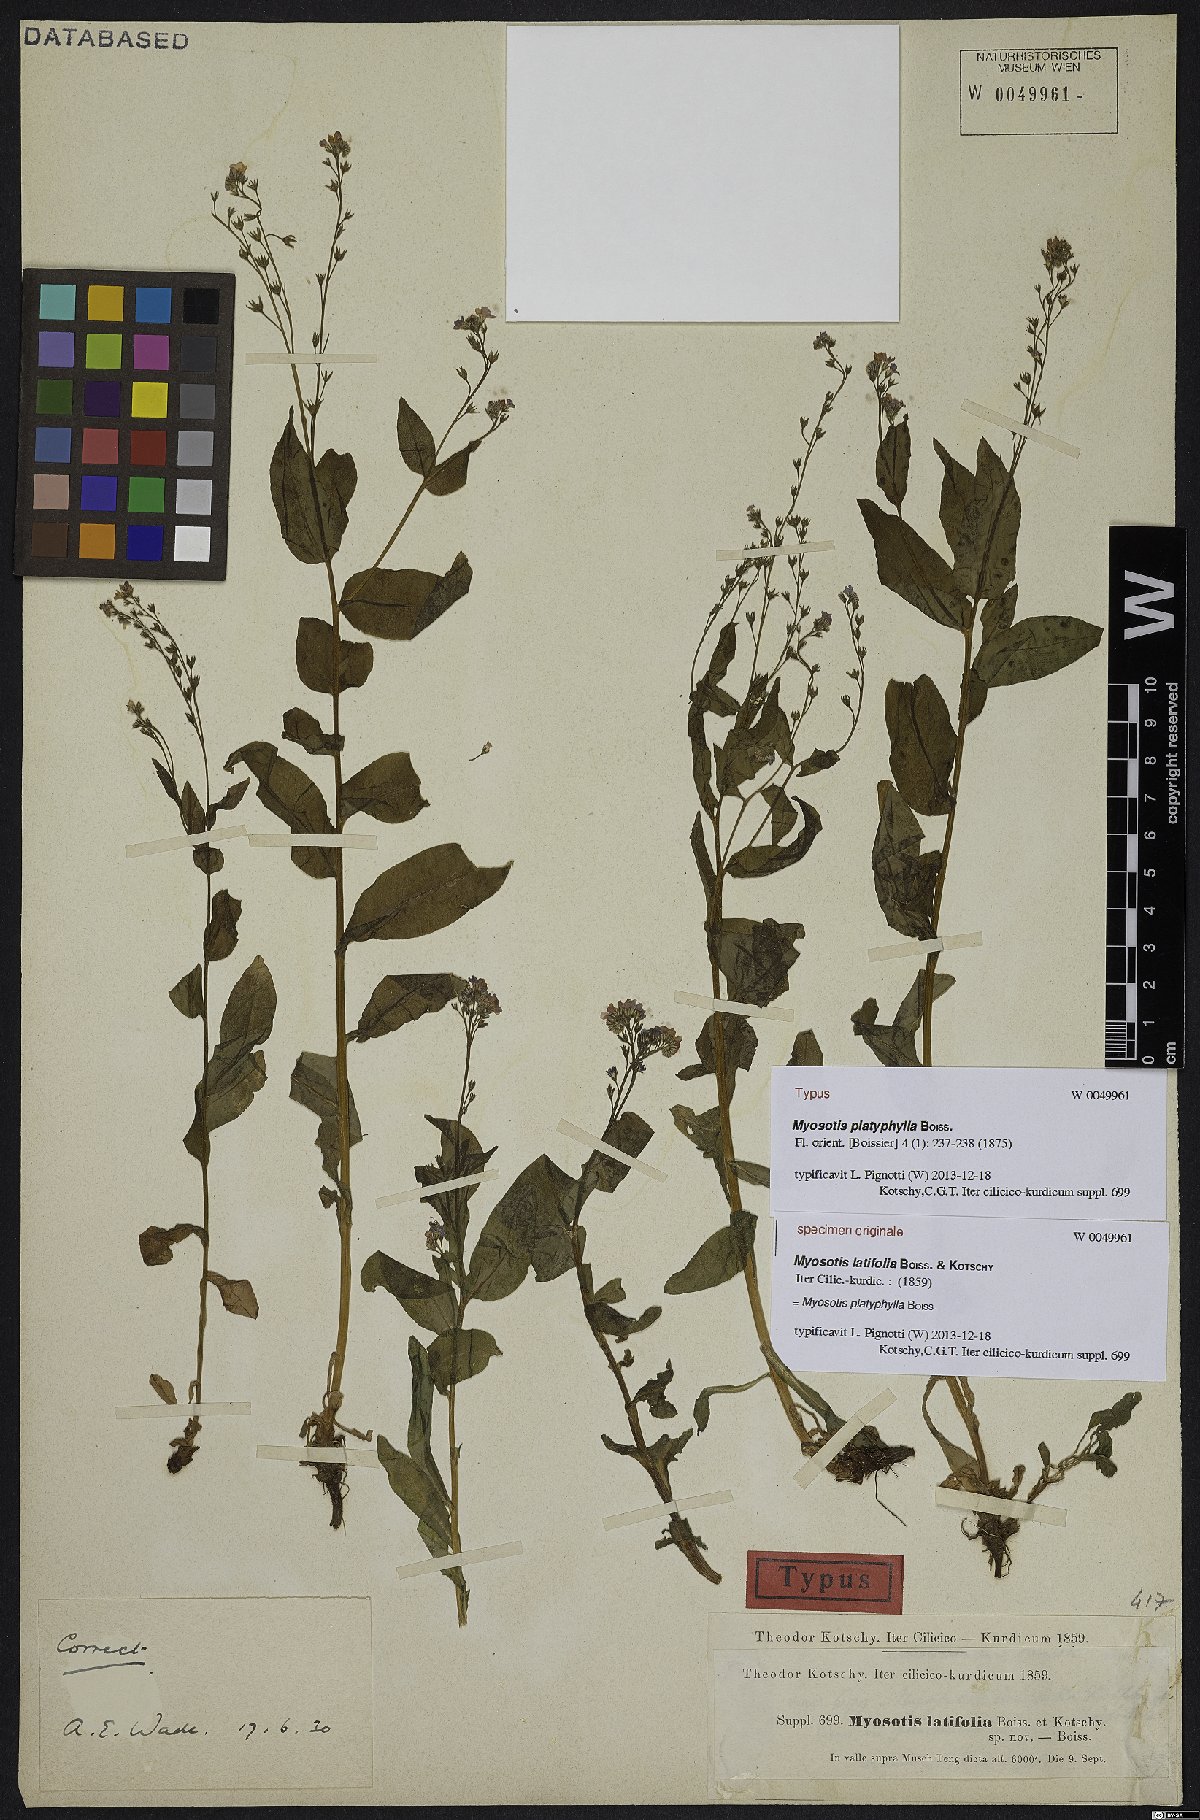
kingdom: Plantae
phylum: Tracheophyta
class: Magnoliopsida
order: Boraginales
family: Boraginaceae
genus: Myosotis
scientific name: Myosotis platyphylla
